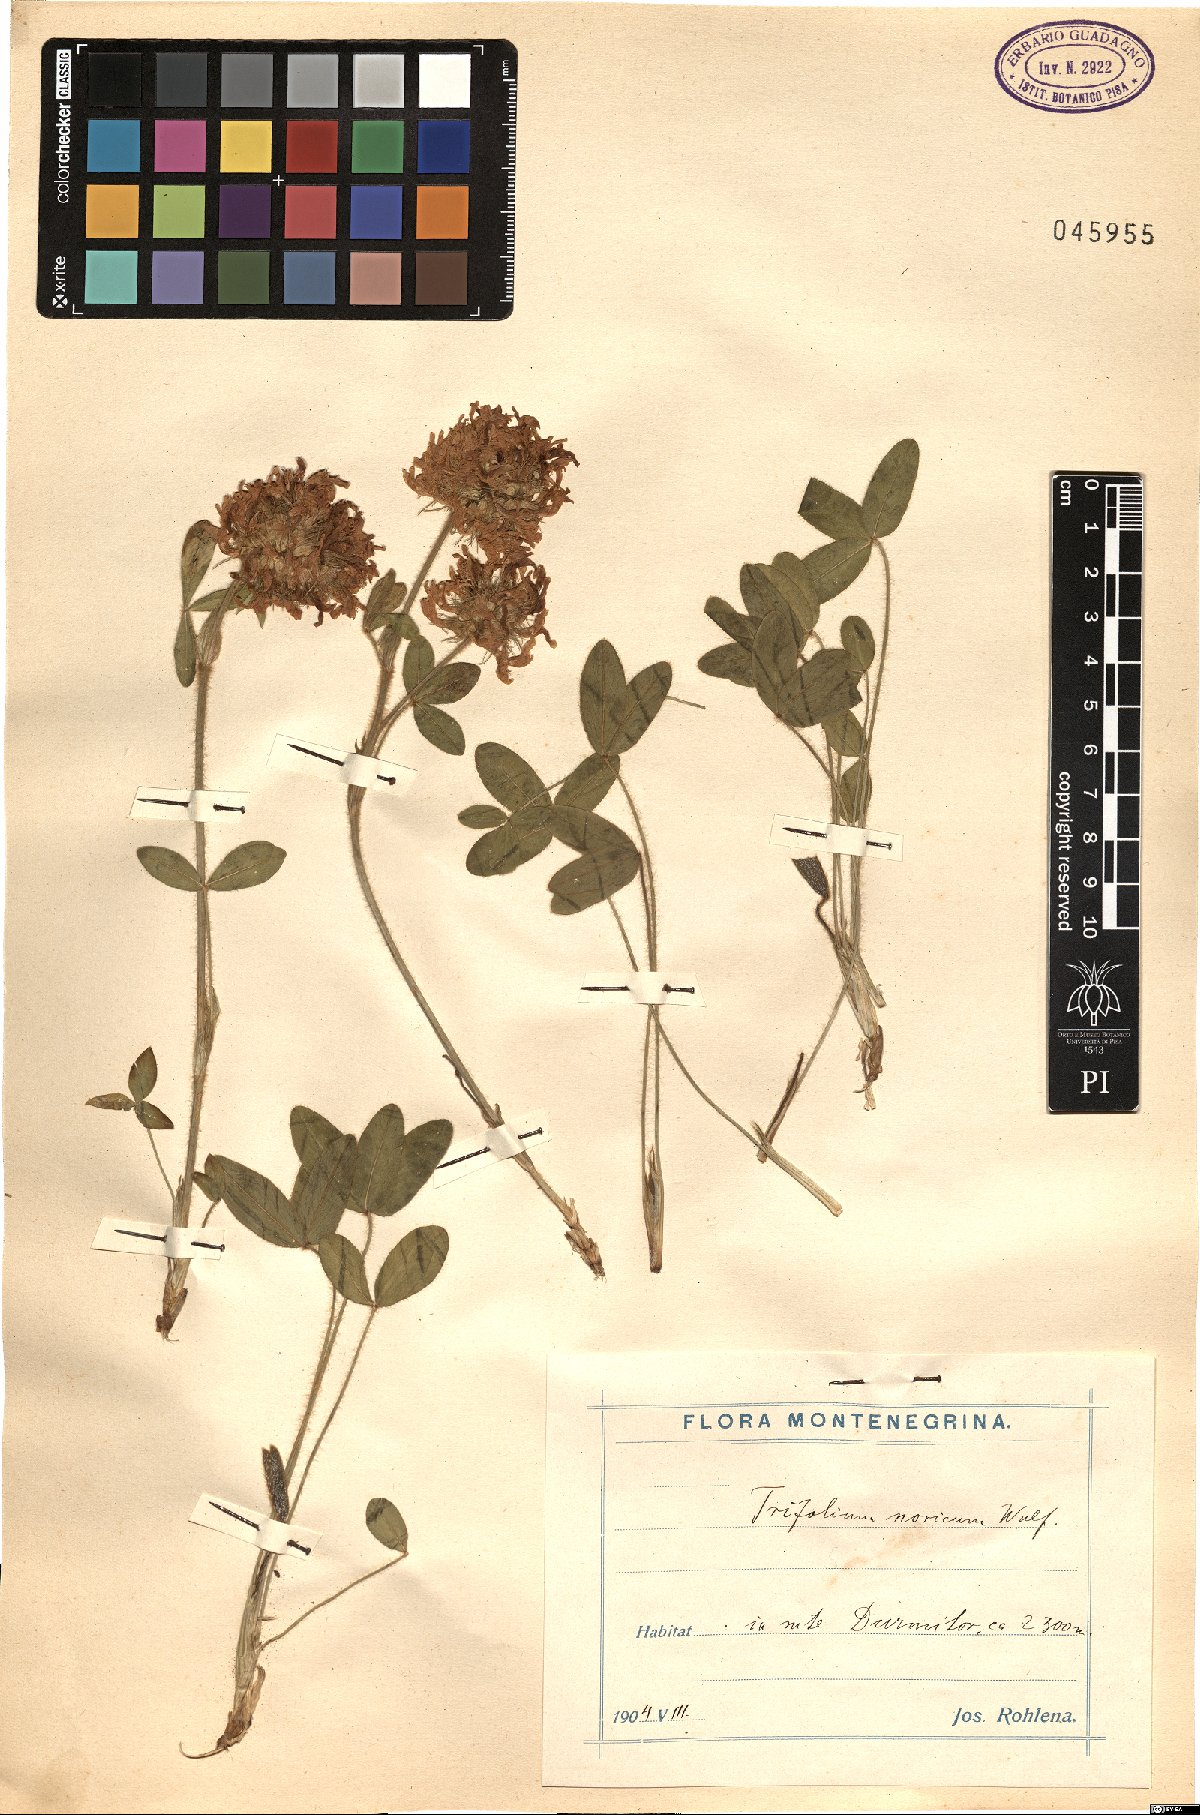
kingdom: Plantae
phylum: Tracheophyta
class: Magnoliopsida
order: Fabales
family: Fabaceae
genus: Trifolium
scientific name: Trifolium noricum
